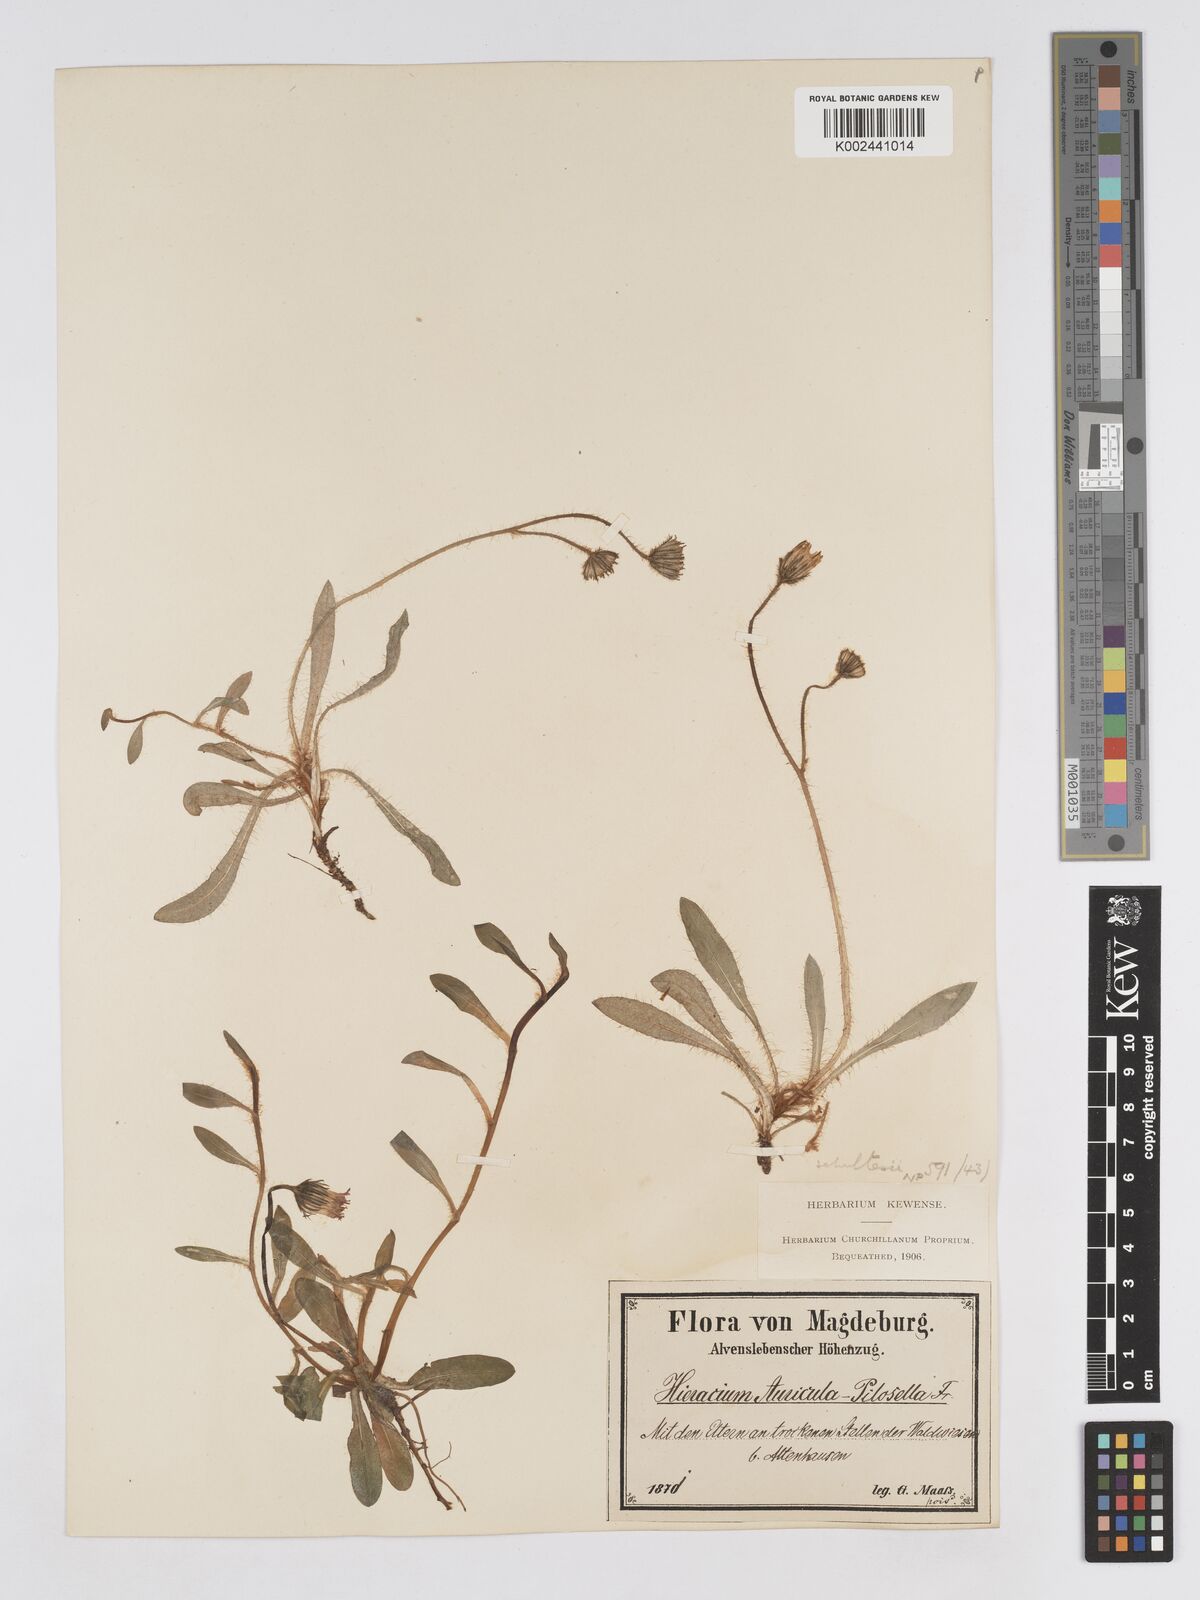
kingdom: Plantae
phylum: Tracheophyta
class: Magnoliopsida
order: Asterales
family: Asteraceae
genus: Pilosella
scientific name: Pilosella schultesii
